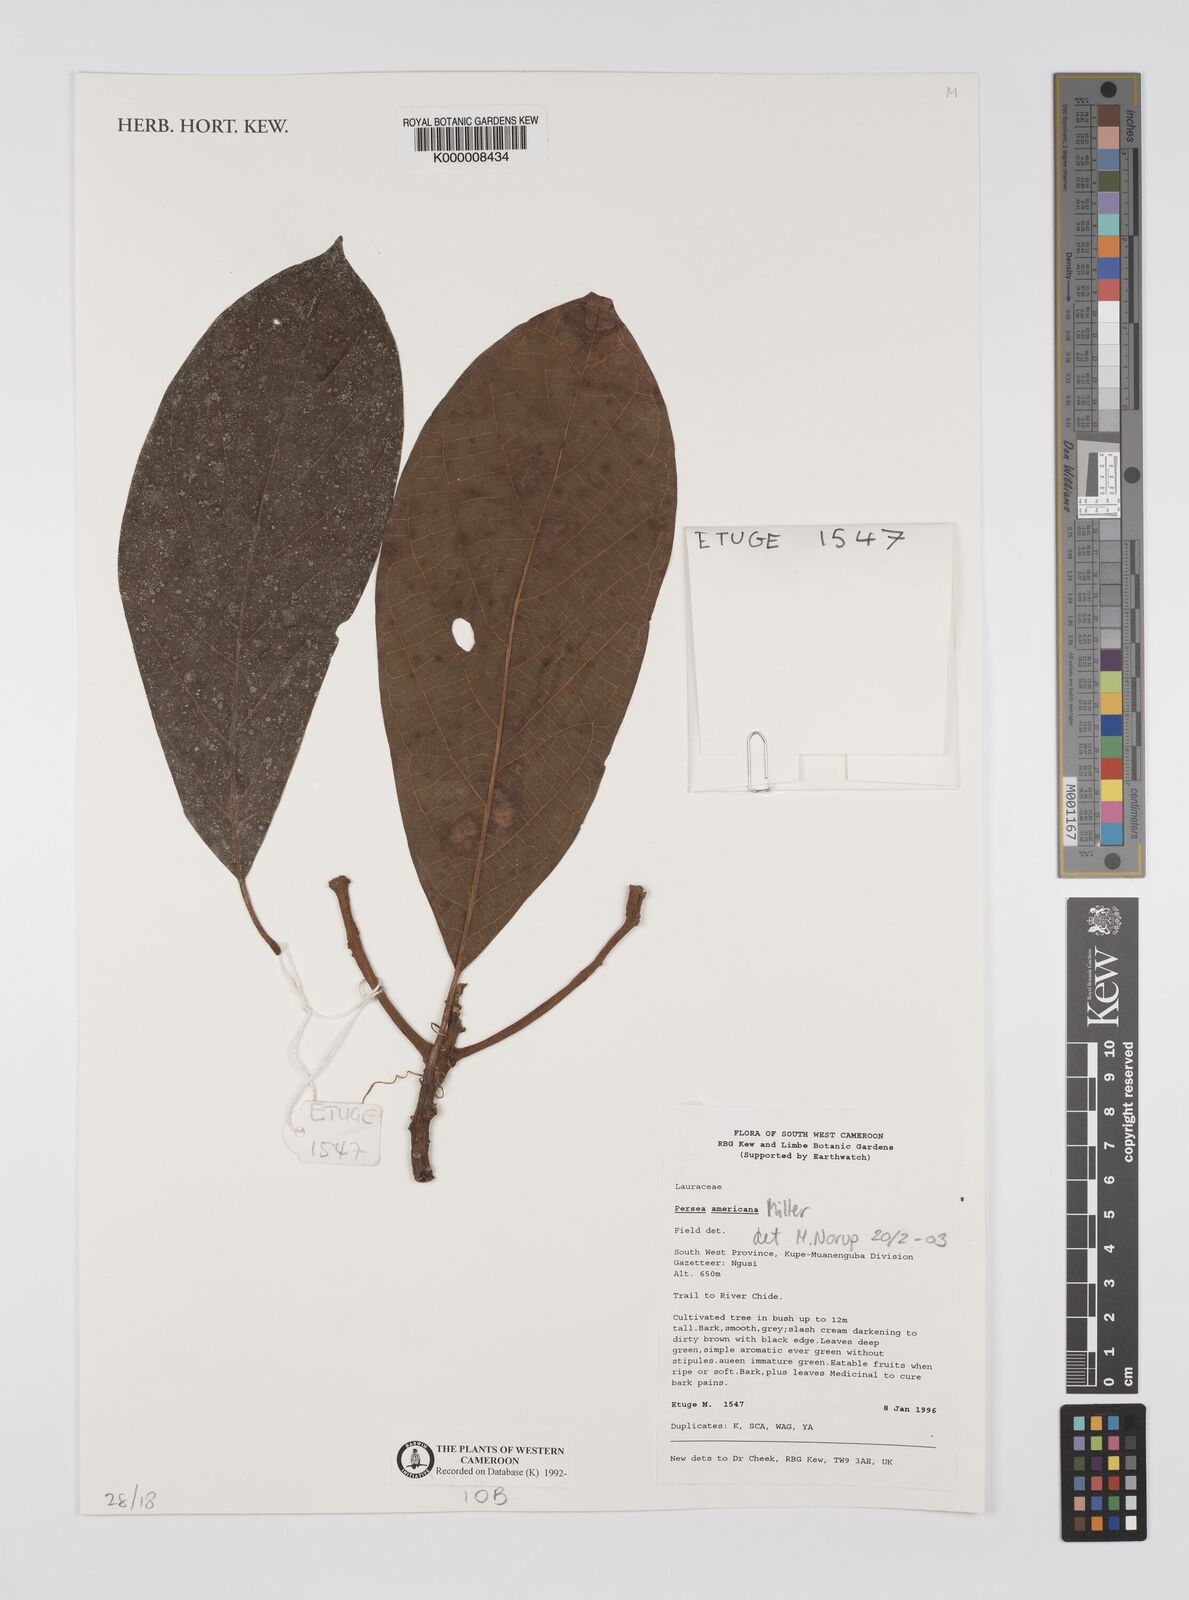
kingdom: Plantae
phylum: Tracheophyta
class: Magnoliopsida
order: Laurales
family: Lauraceae
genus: Persea
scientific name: Persea americana
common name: Avocado
